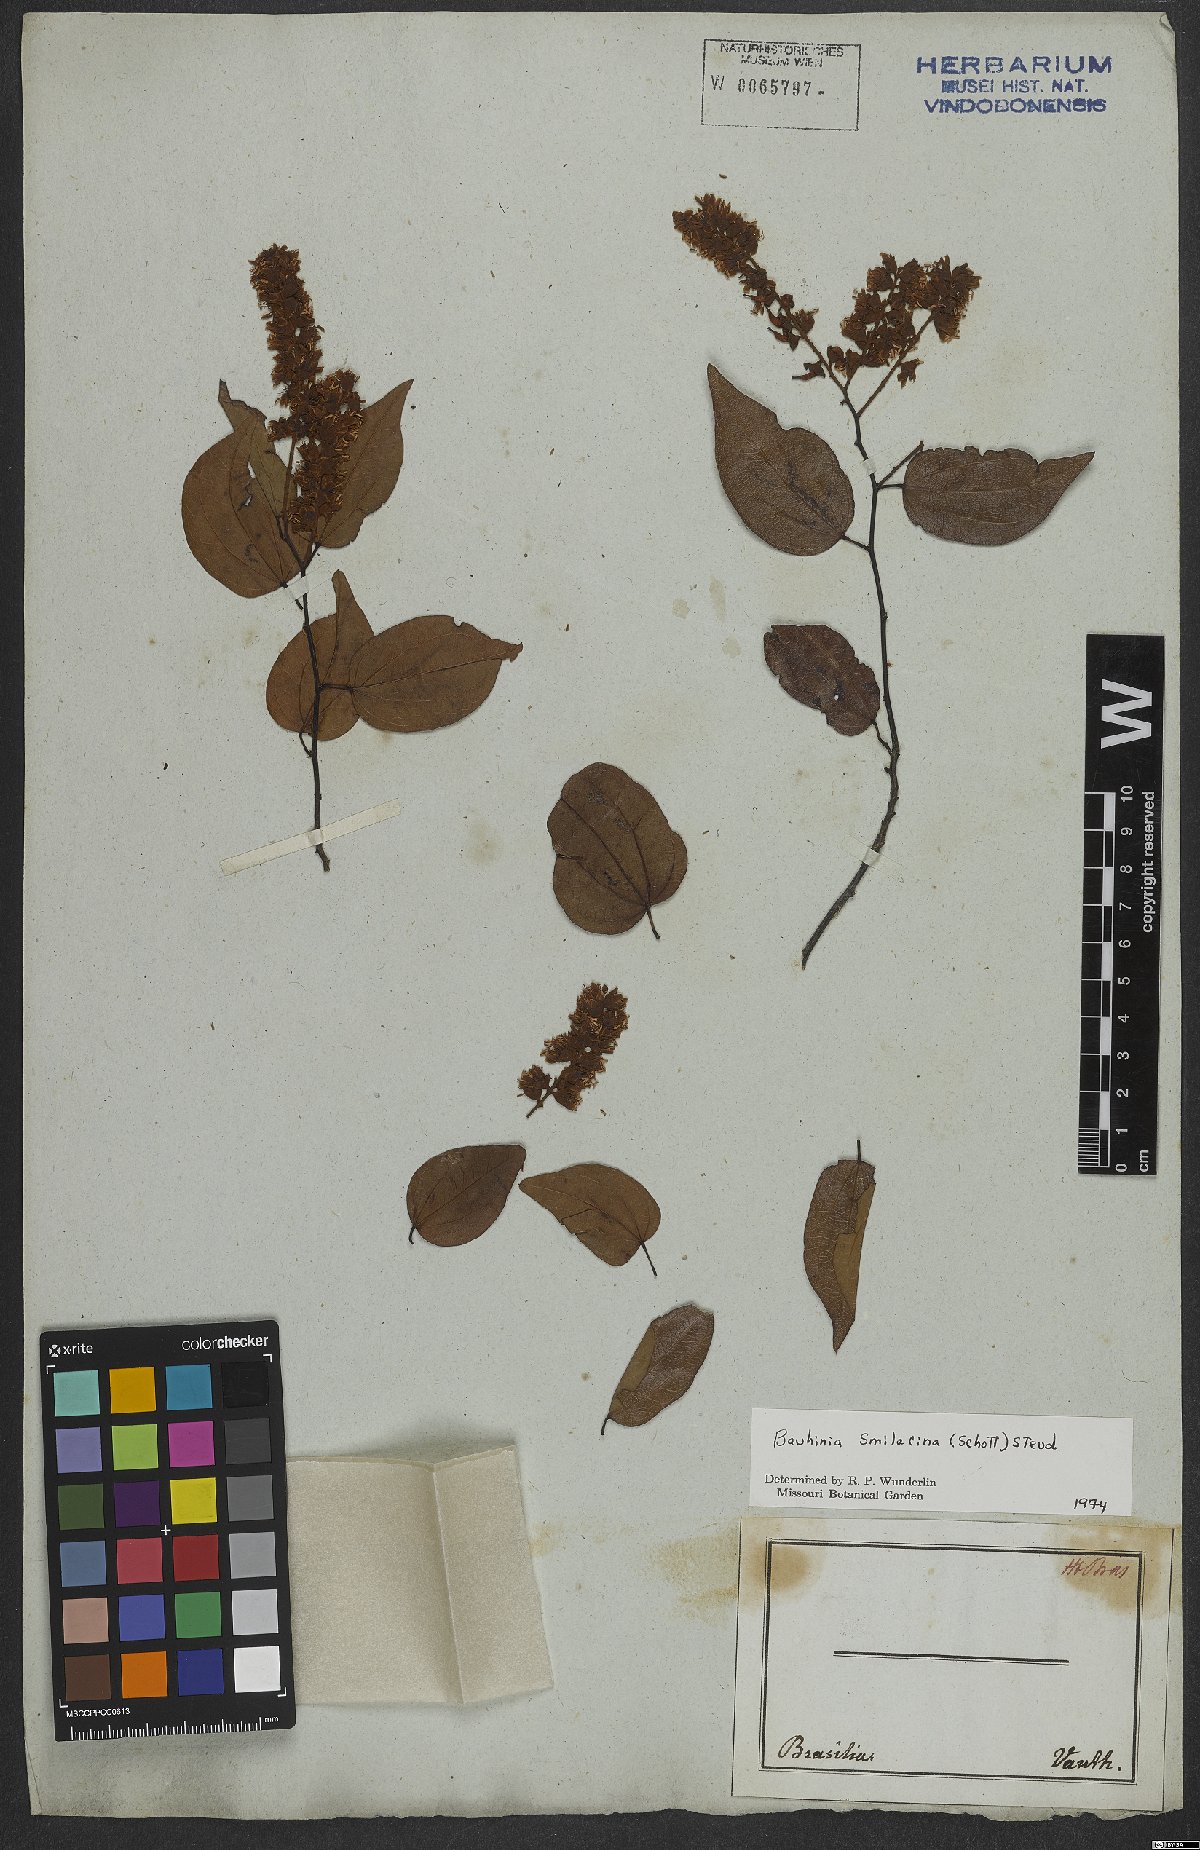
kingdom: Plantae
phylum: Tracheophyta
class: Magnoliopsida
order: Fabales
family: Fabaceae
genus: Schnella
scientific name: Schnella smilacina
